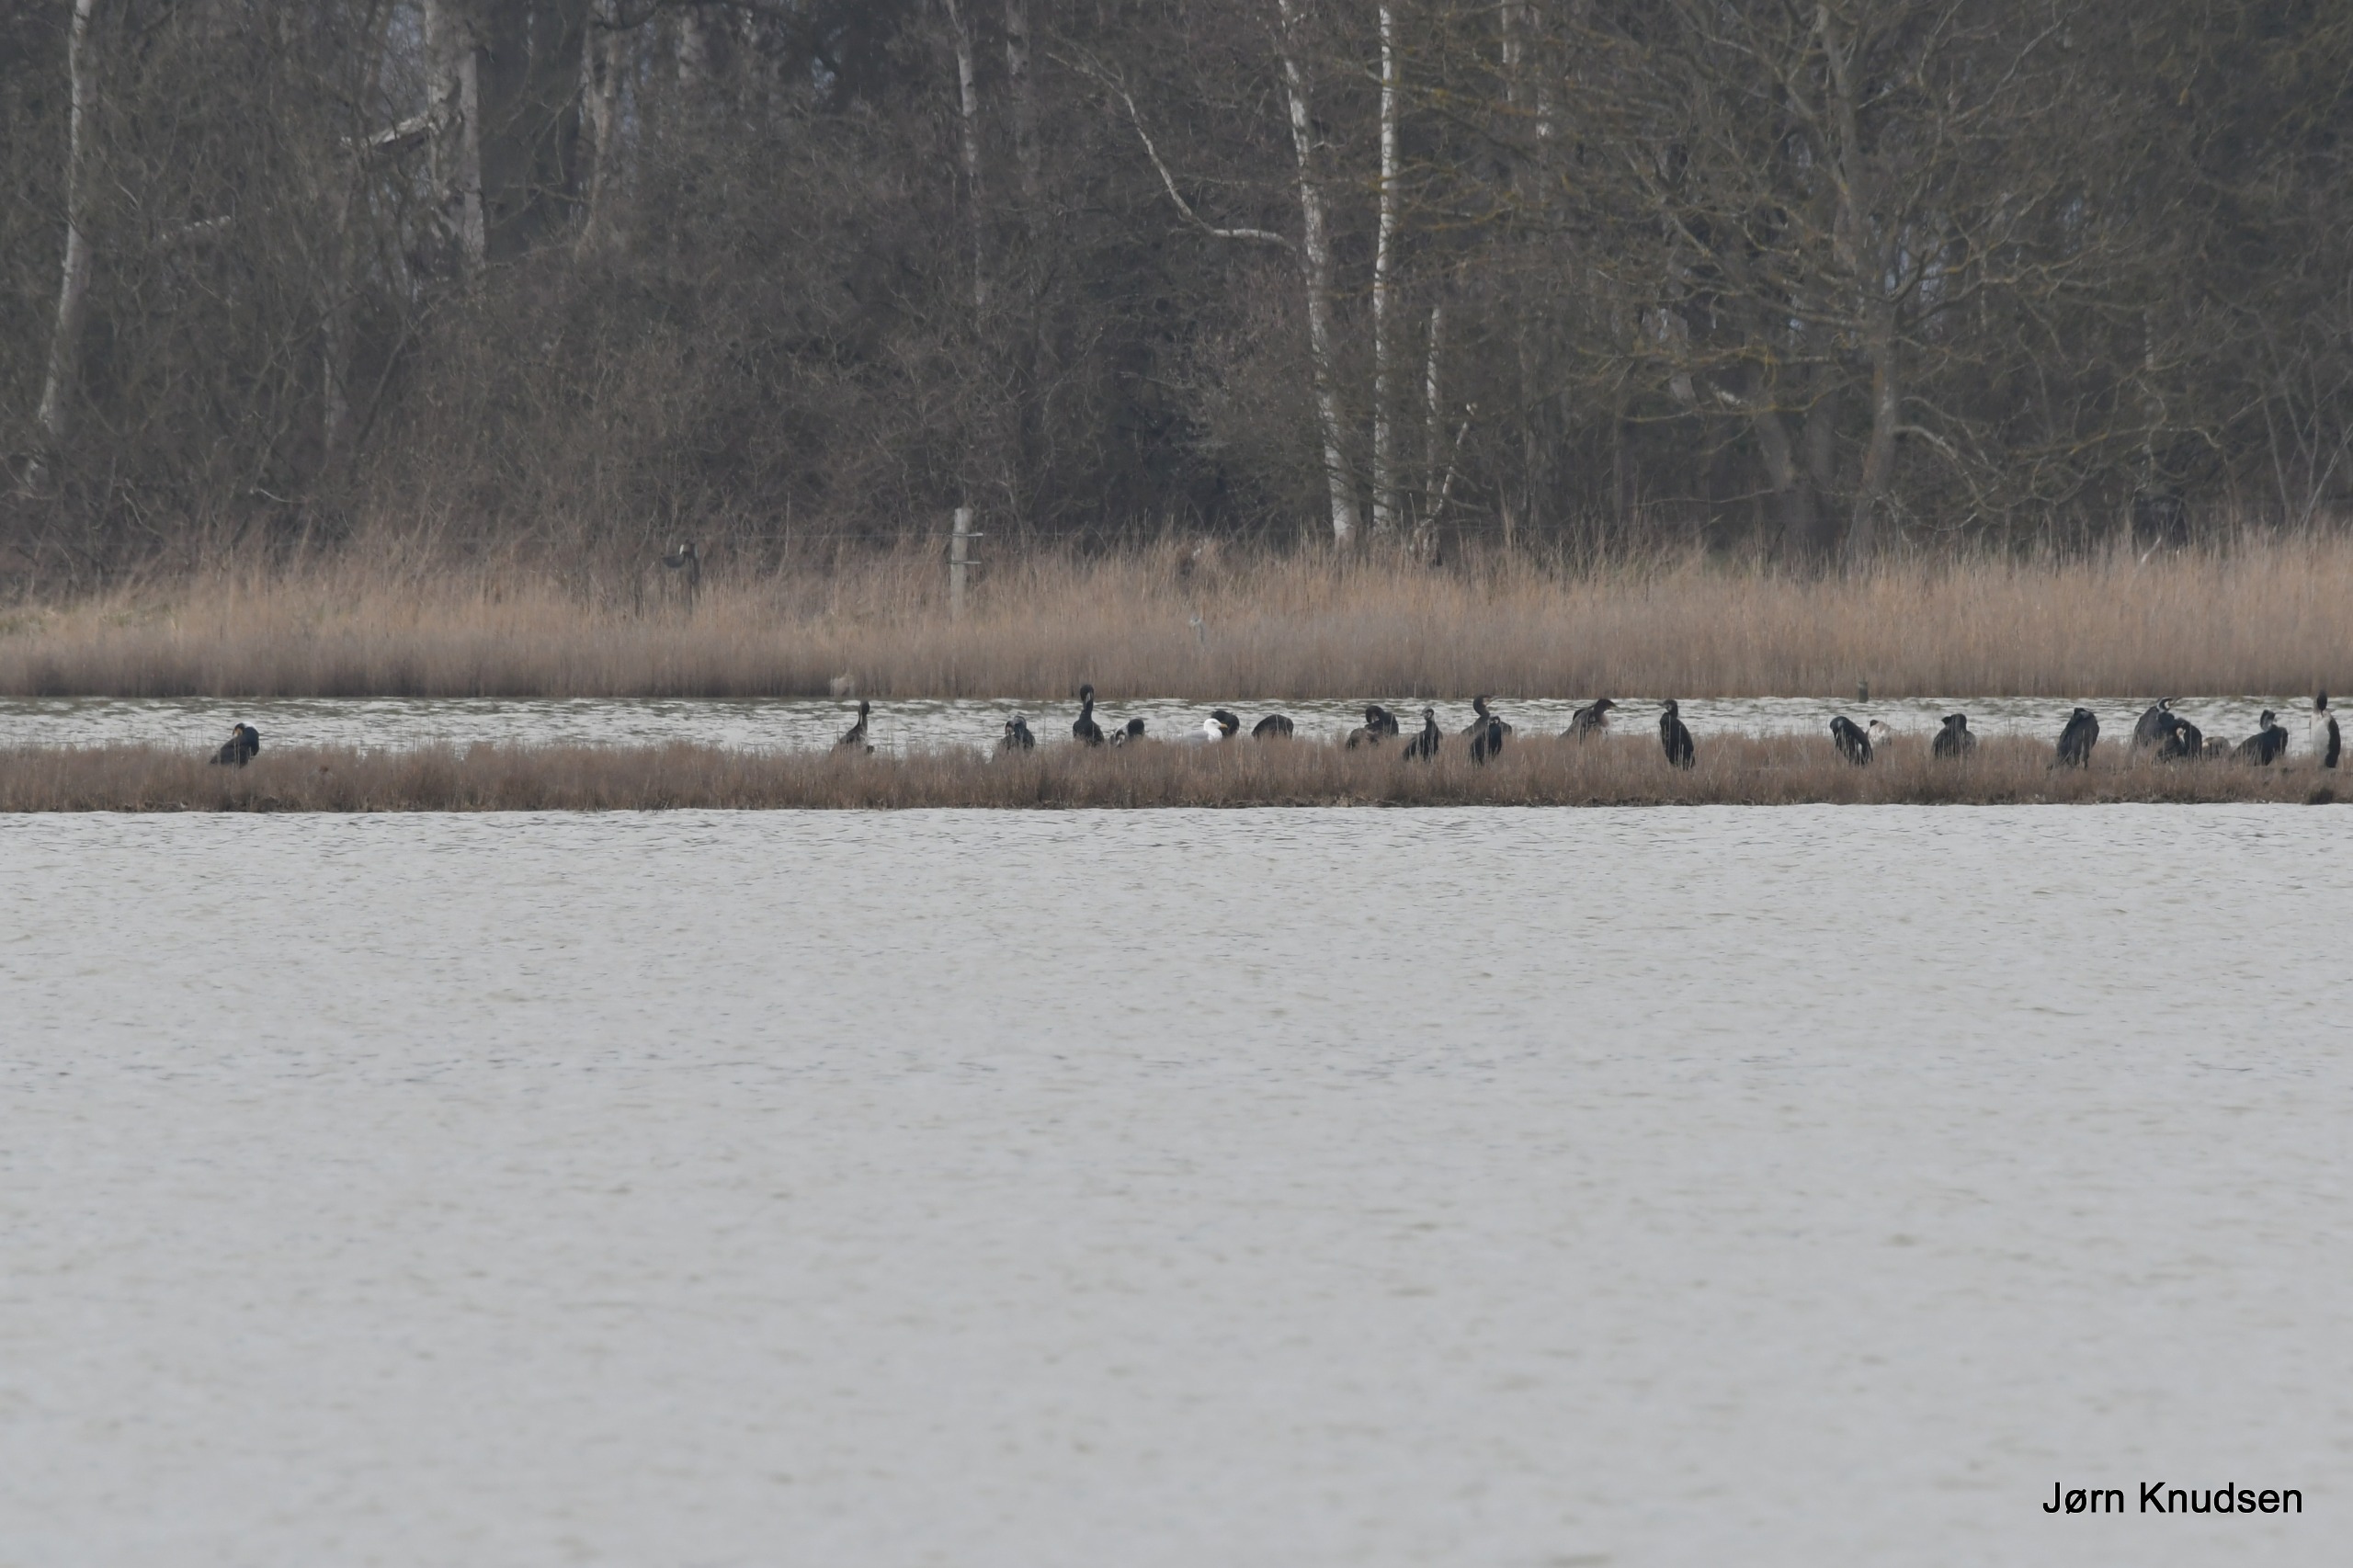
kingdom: Animalia
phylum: Chordata
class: Aves
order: Suliformes
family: Phalacrocoracidae
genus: Phalacrocorax
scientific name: Phalacrocorax carbo
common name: Skarv
